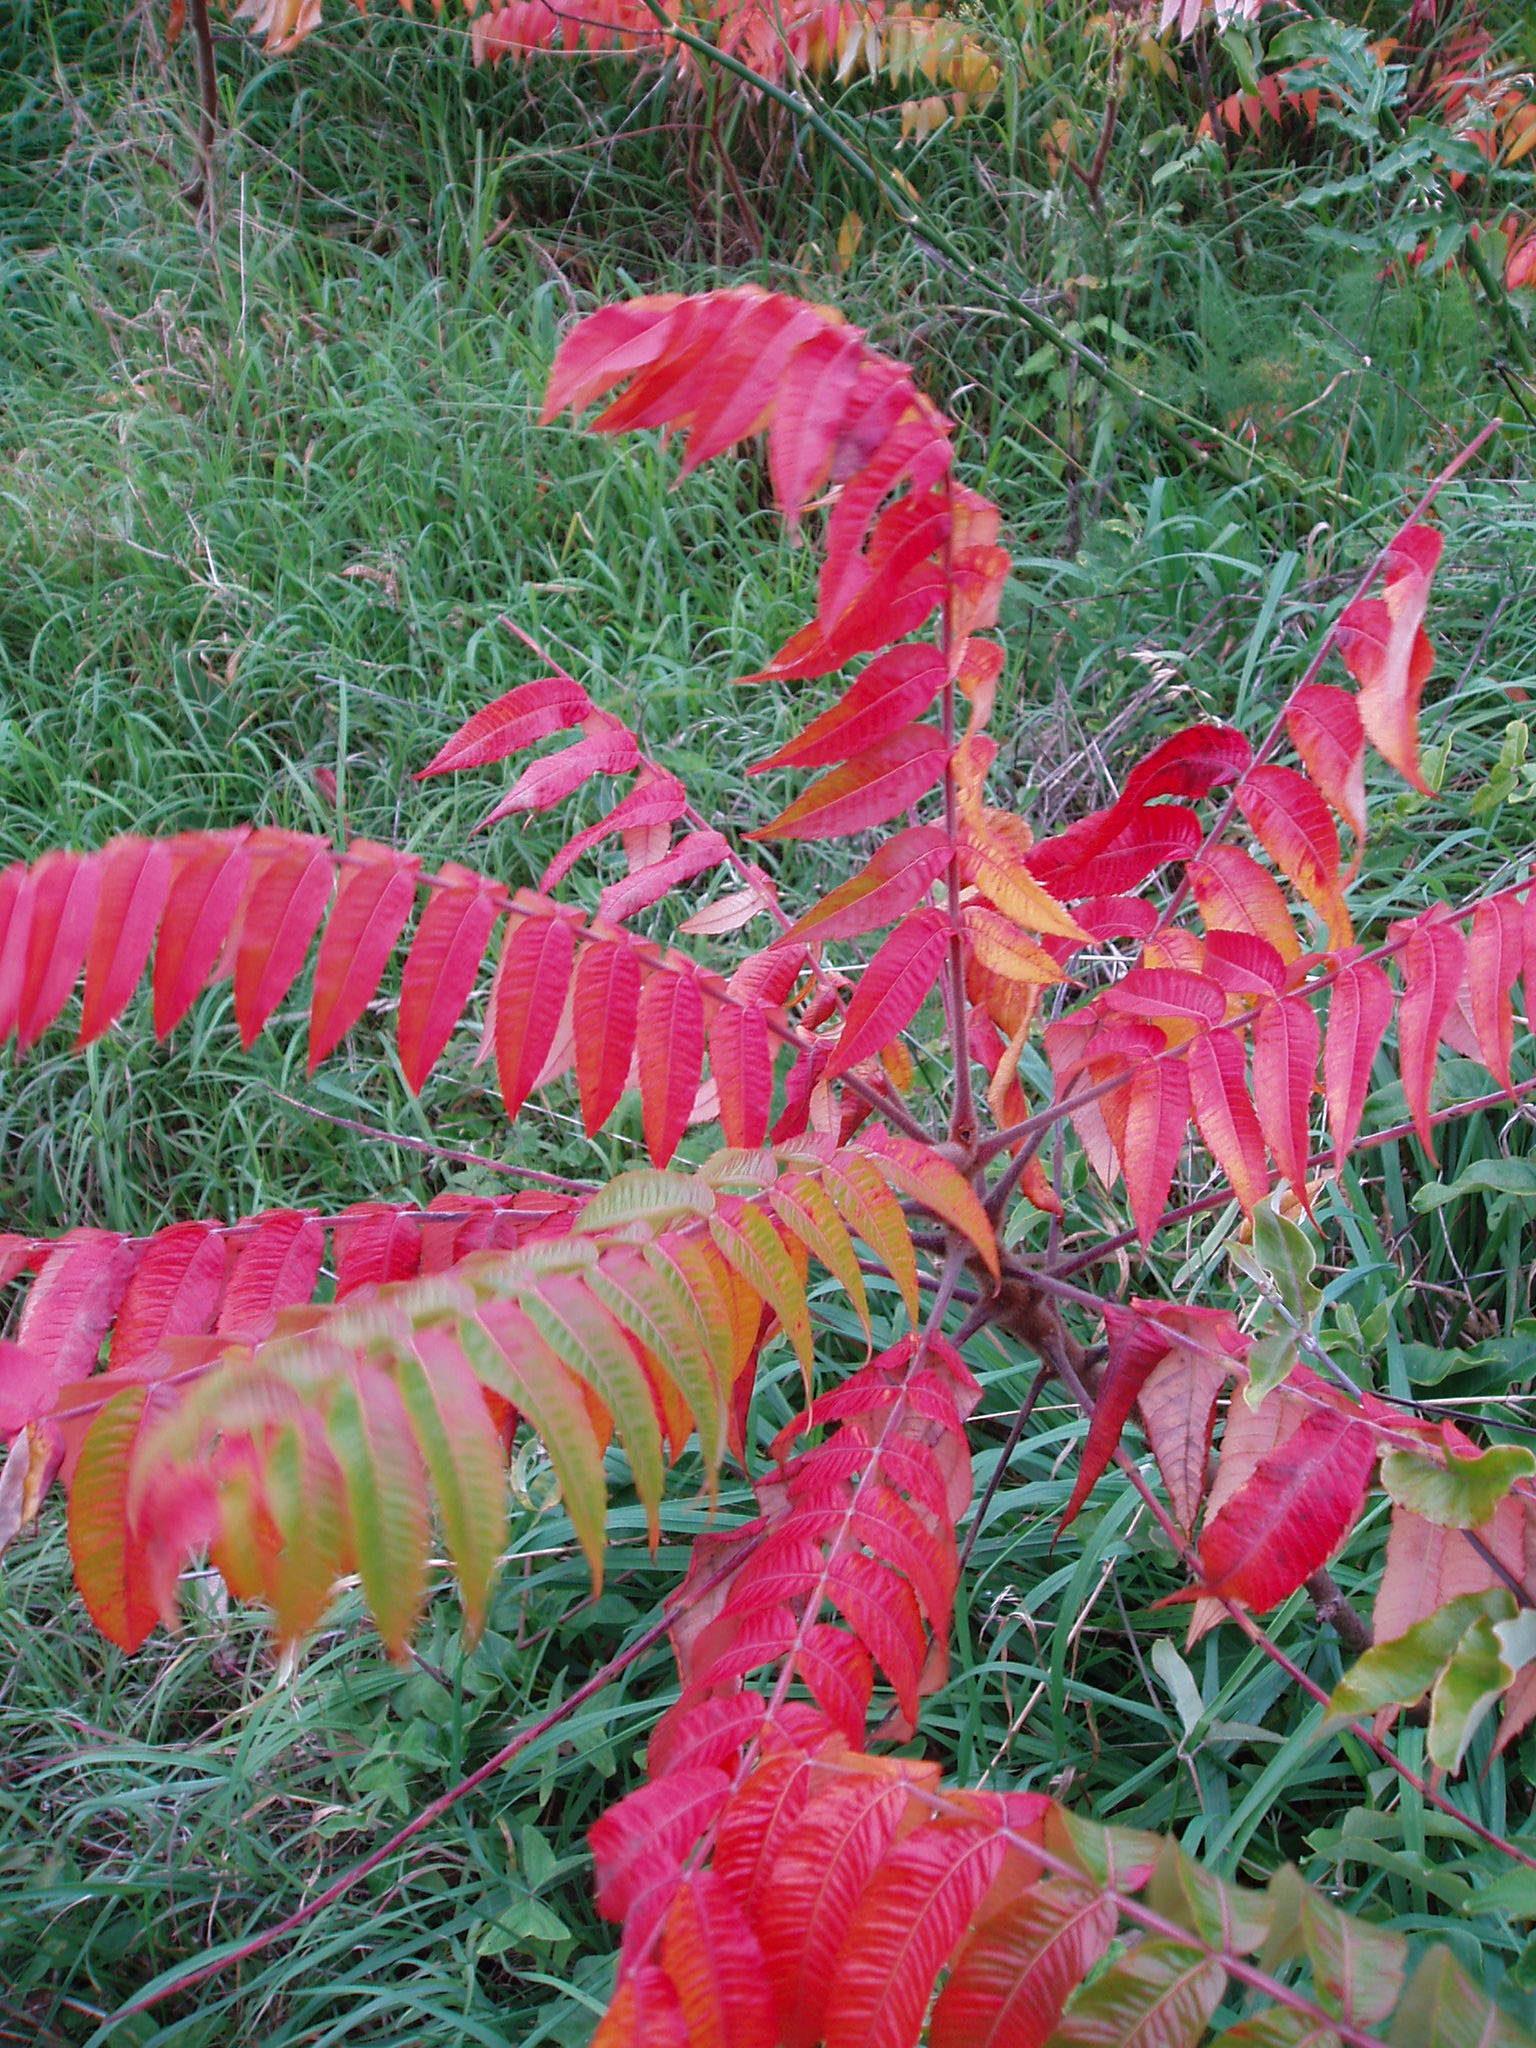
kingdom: Plantae
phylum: Tracheophyta
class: Magnoliopsida
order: Sapindales
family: Anacardiaceae
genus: Rhus
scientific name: Rhus typhina
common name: Staghorn sumac
